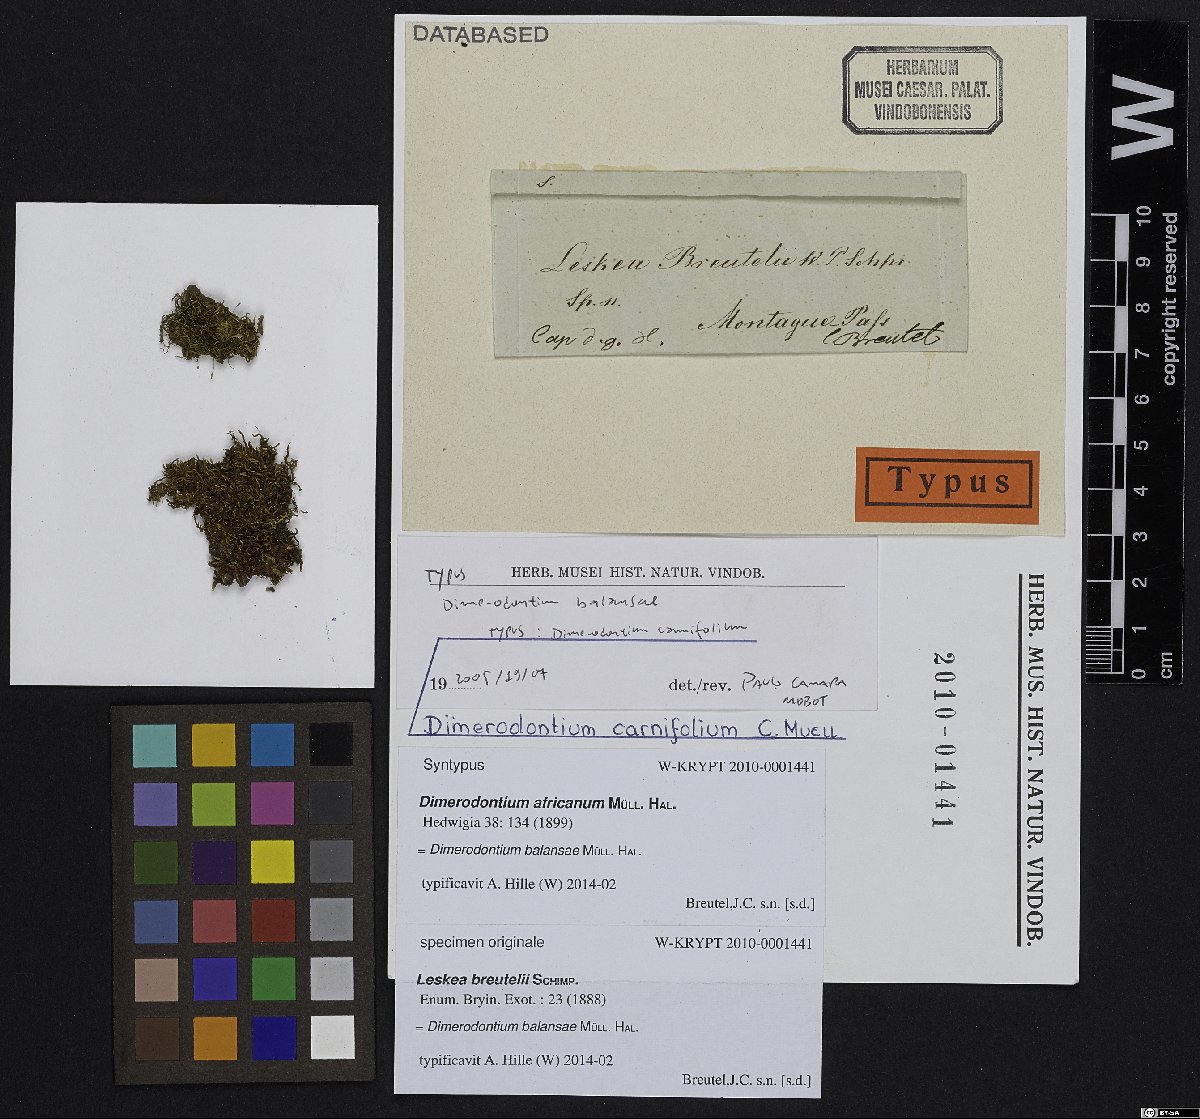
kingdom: Plantae
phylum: Bryophyta
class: Bryopsida
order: Hypnales
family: Fabroniaceae
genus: Dimerodontium
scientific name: Dimerodontium balansae
